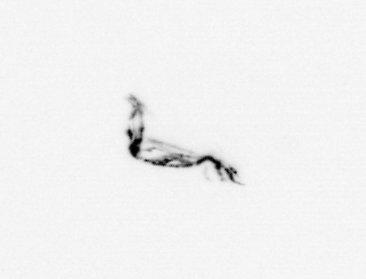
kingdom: Animalia
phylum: Arthropoda
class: Copepoda
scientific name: Copepoda
